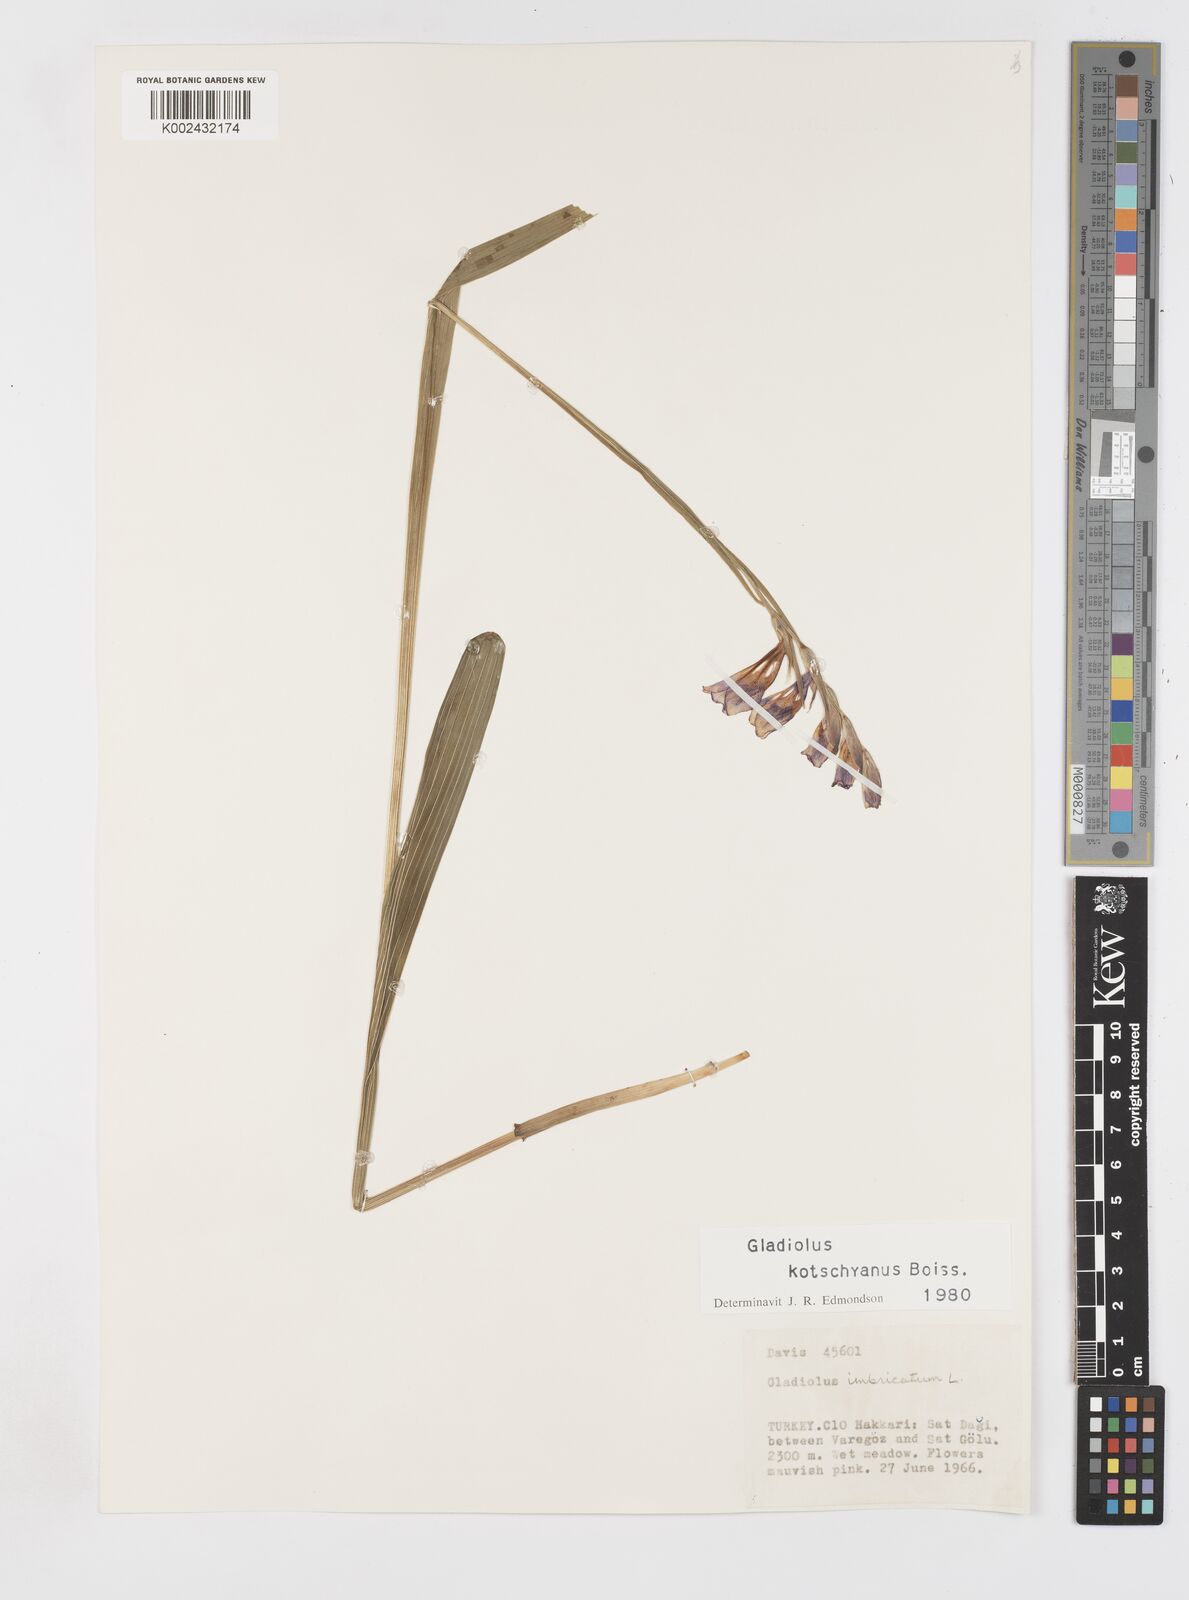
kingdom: Plantae
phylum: Tracheophyta
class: Liliopsida
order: Asparagales
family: Iridaceae
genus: Gladiolus
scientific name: Gladiolus imbricatus
